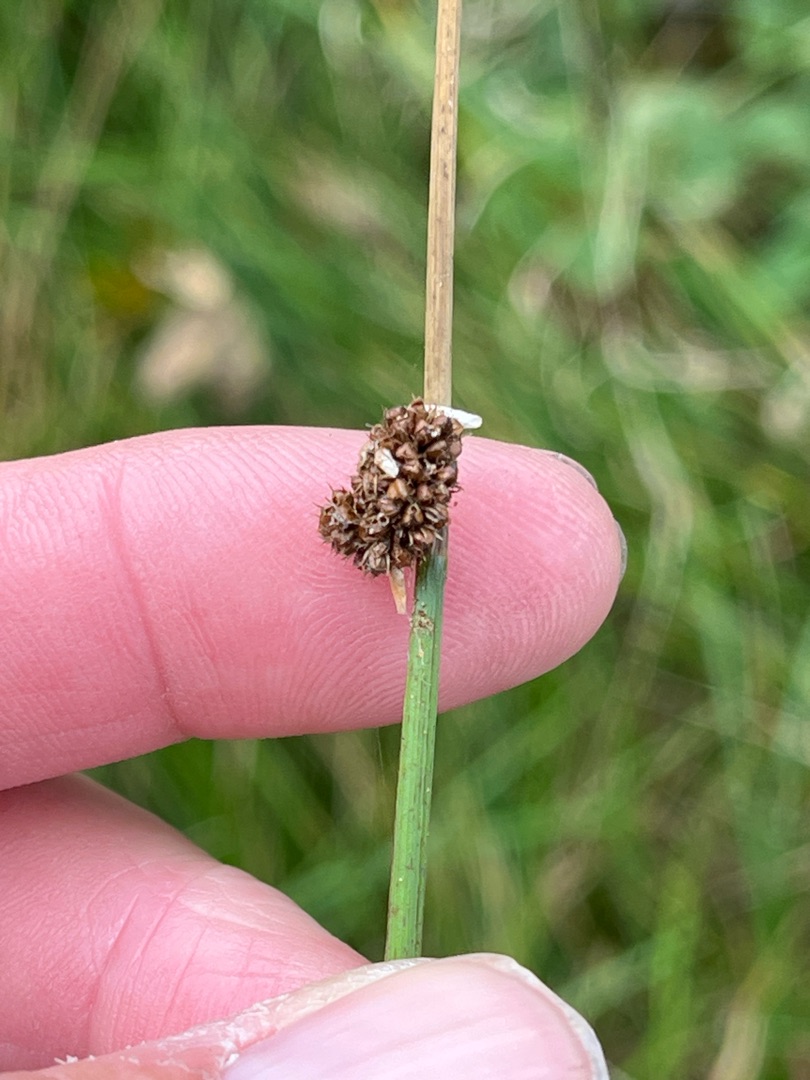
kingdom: Plantae
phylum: Tracheophyta
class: Liliopsida
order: Poales
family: Juncaceae
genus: Juncus
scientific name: Juncus conglomeratus
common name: Knop-siv
